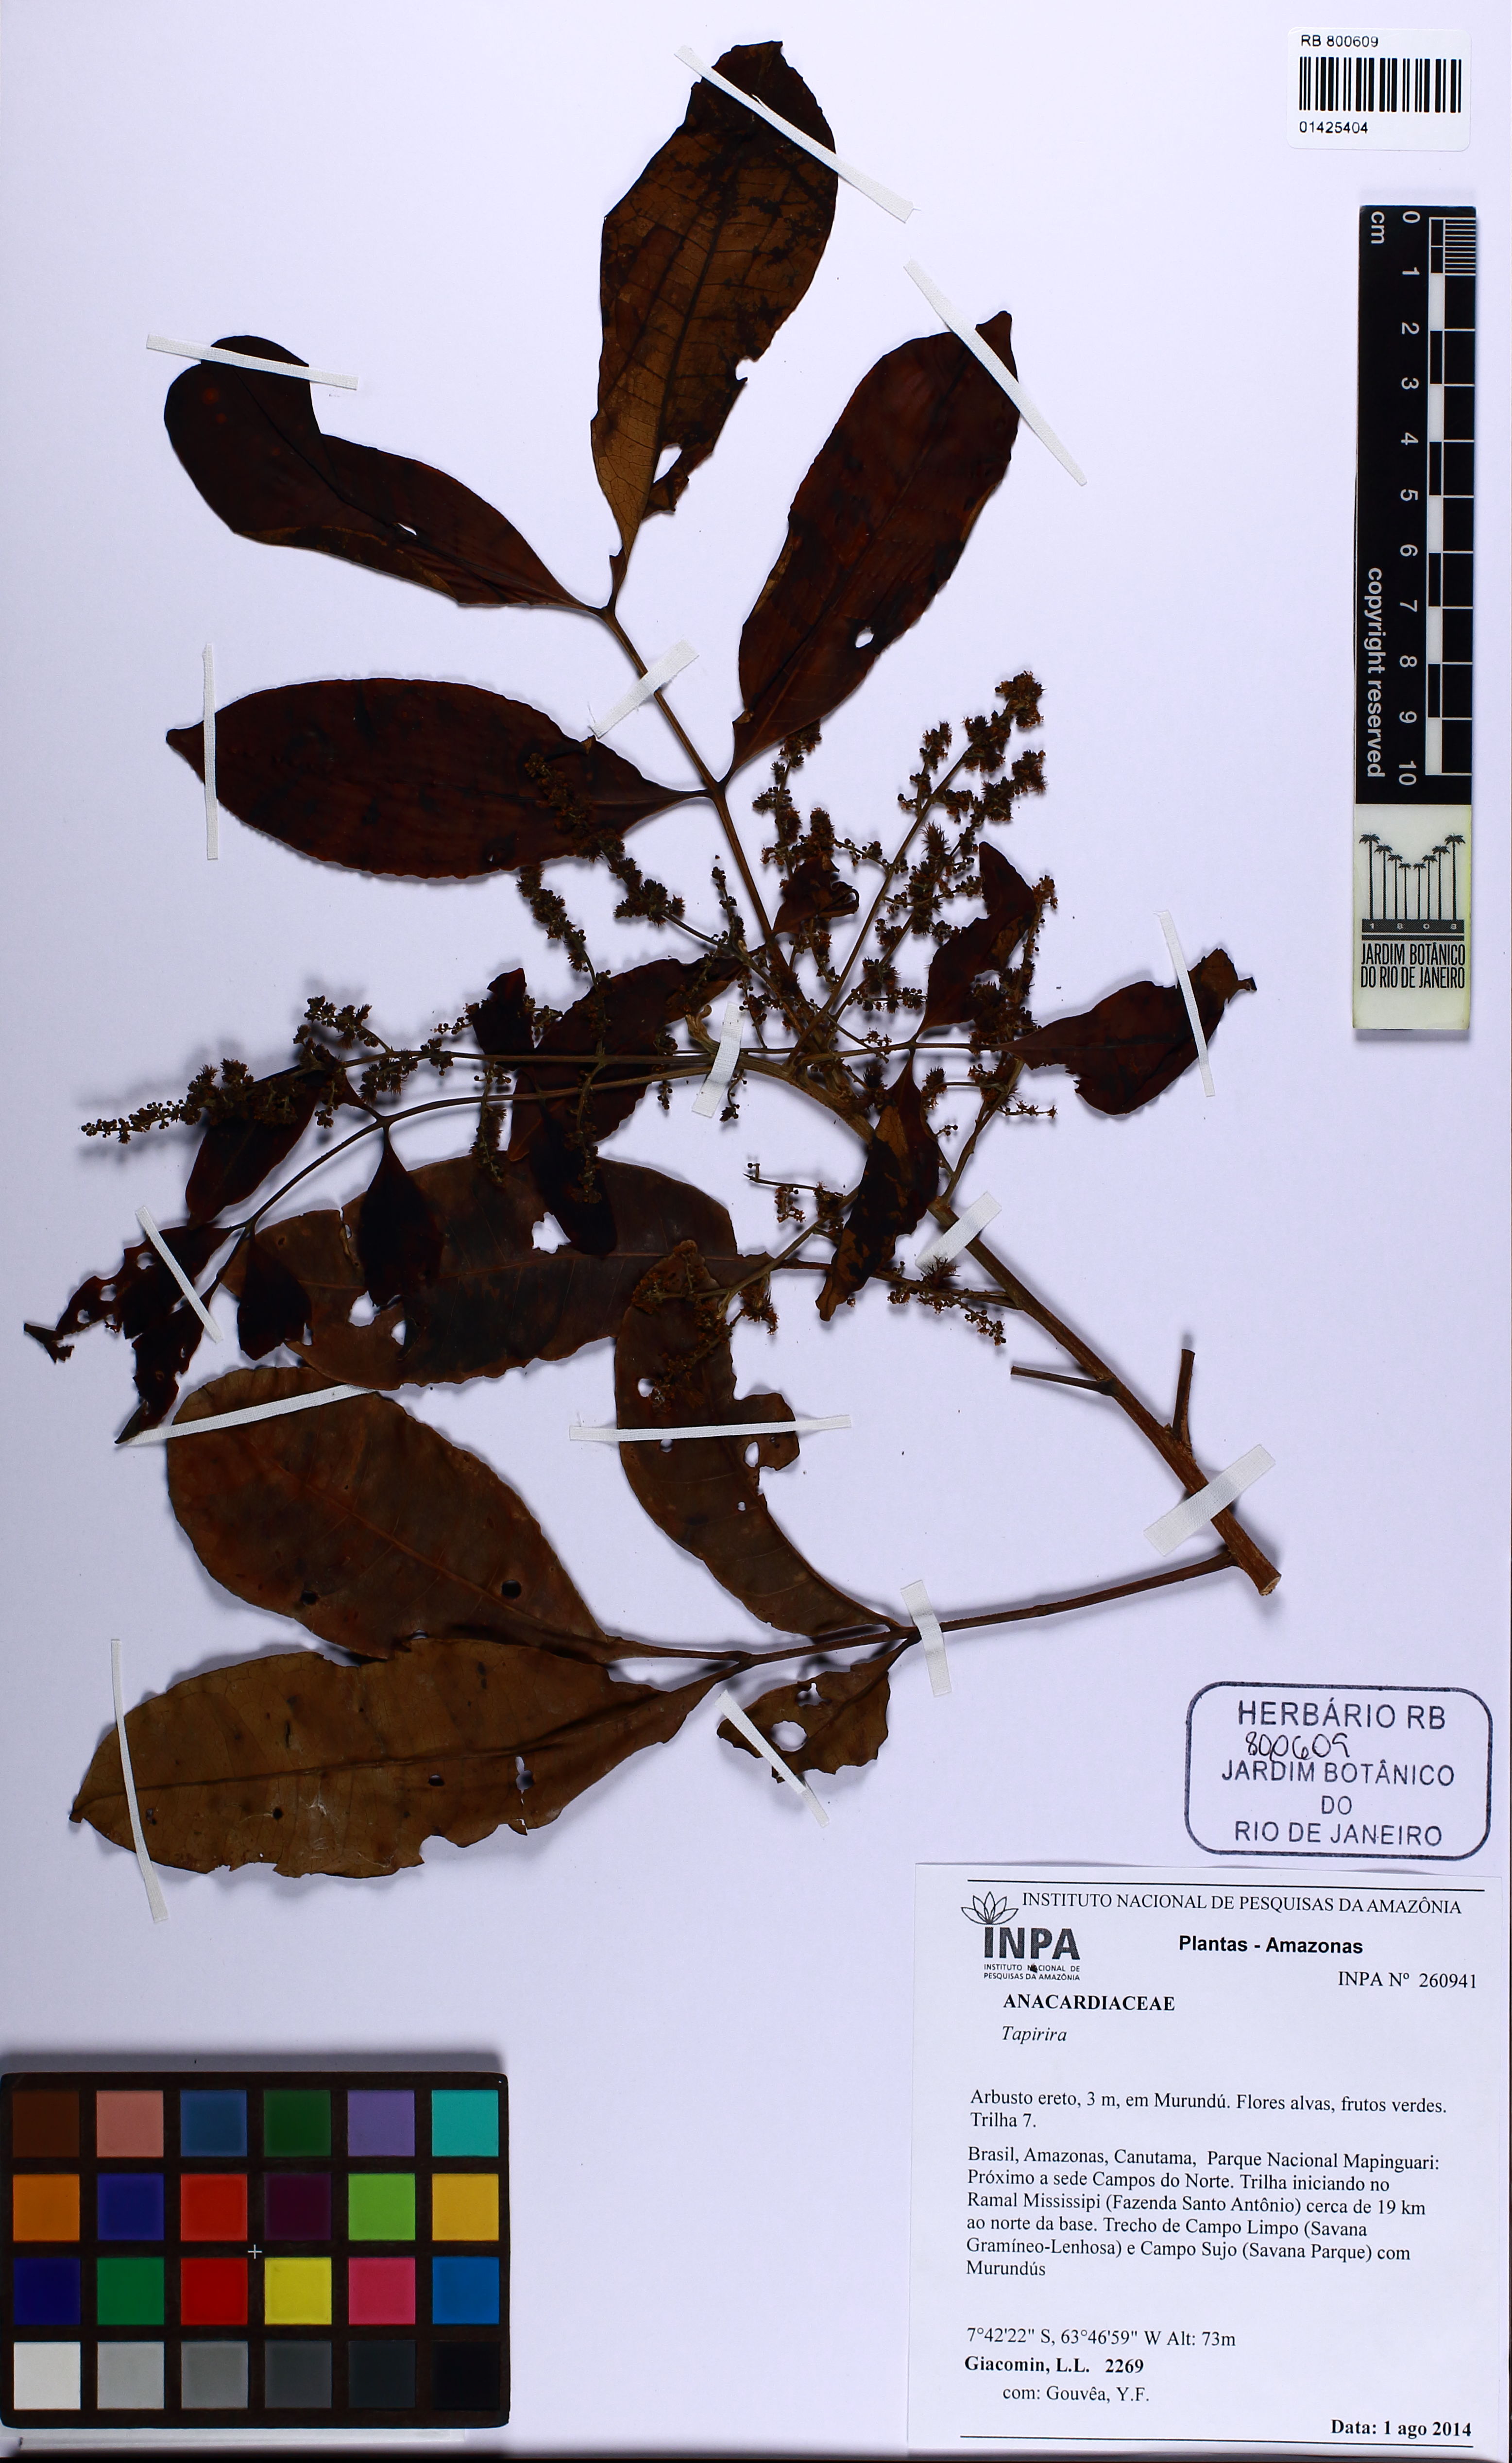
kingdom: Plantae
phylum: Tracheophyta
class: Magnoliopsida
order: Sapindales
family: Anacardiaceae
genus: Tapirira
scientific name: Tapirira
